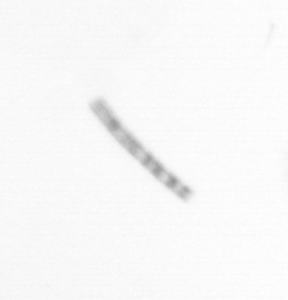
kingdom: Chromista
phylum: Ochrophyta
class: Bacillariophyceae
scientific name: Bacillariophyceae
